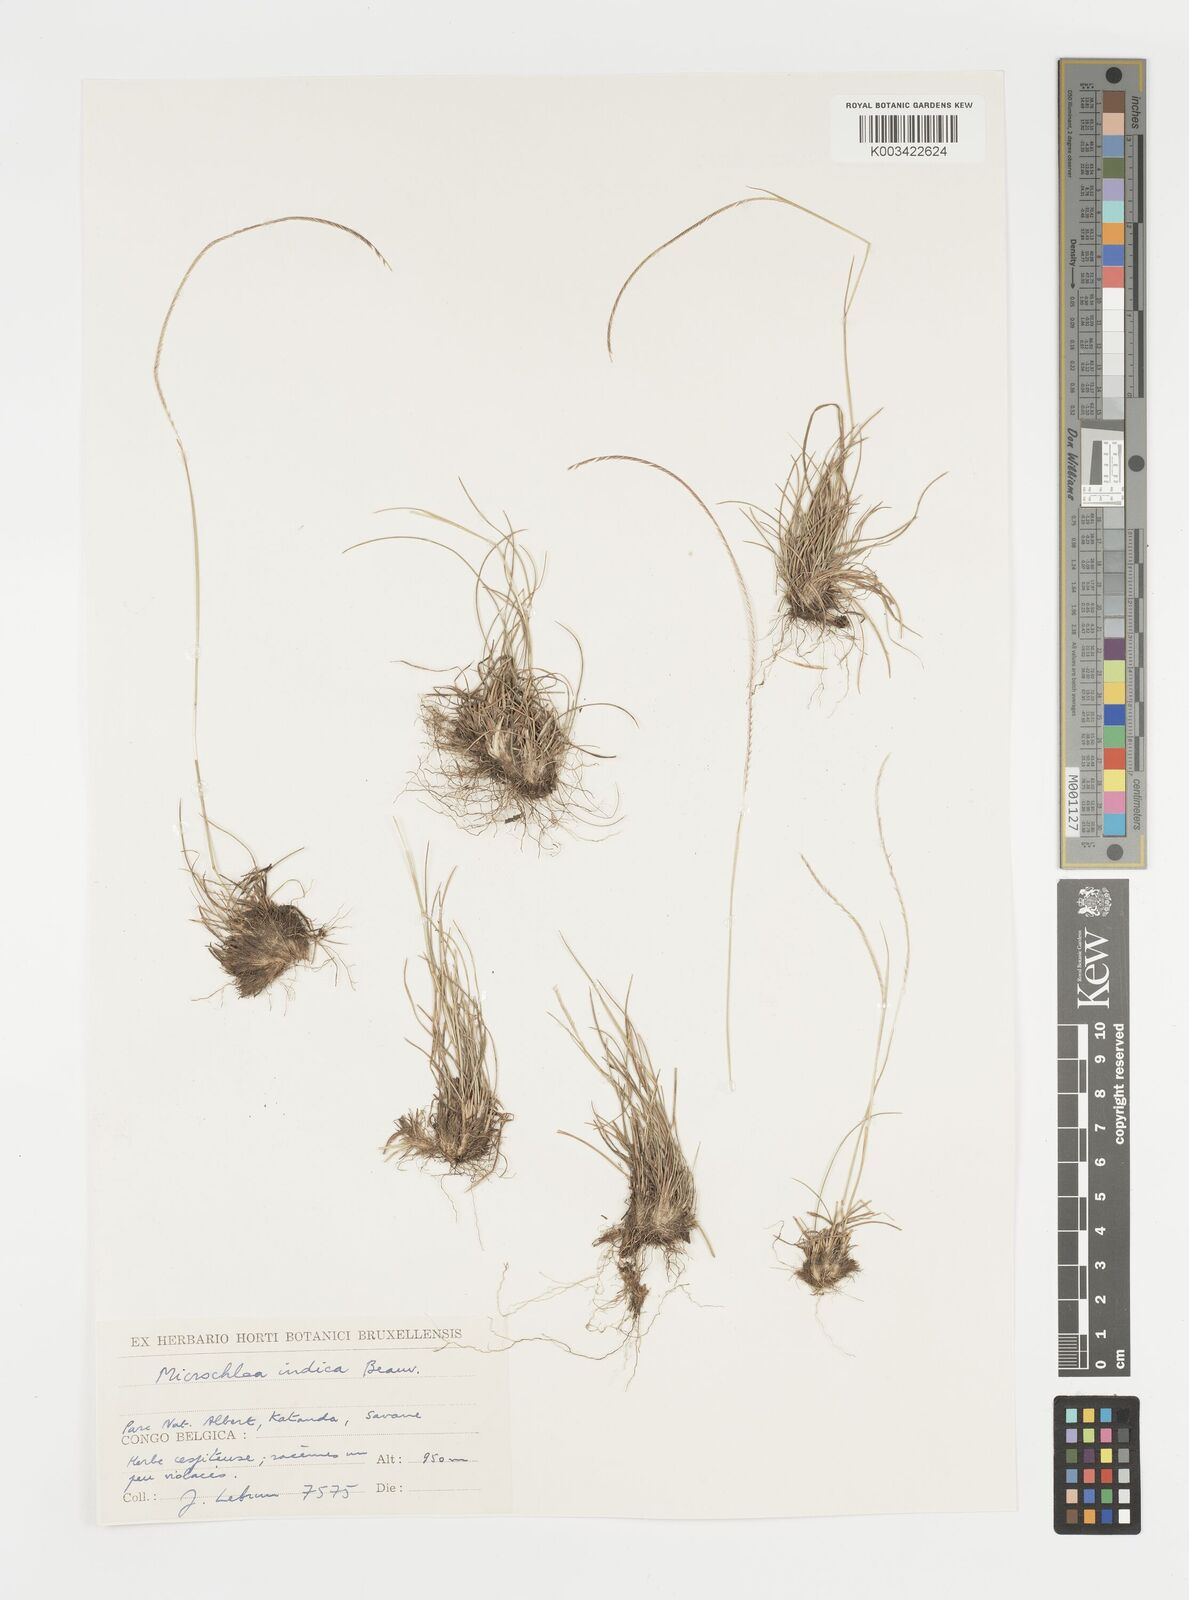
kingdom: Plantae
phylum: Tracheophyta
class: Liliopsida
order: Poales
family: Poaceae
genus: Microchloa
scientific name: Microchloa kunthii
